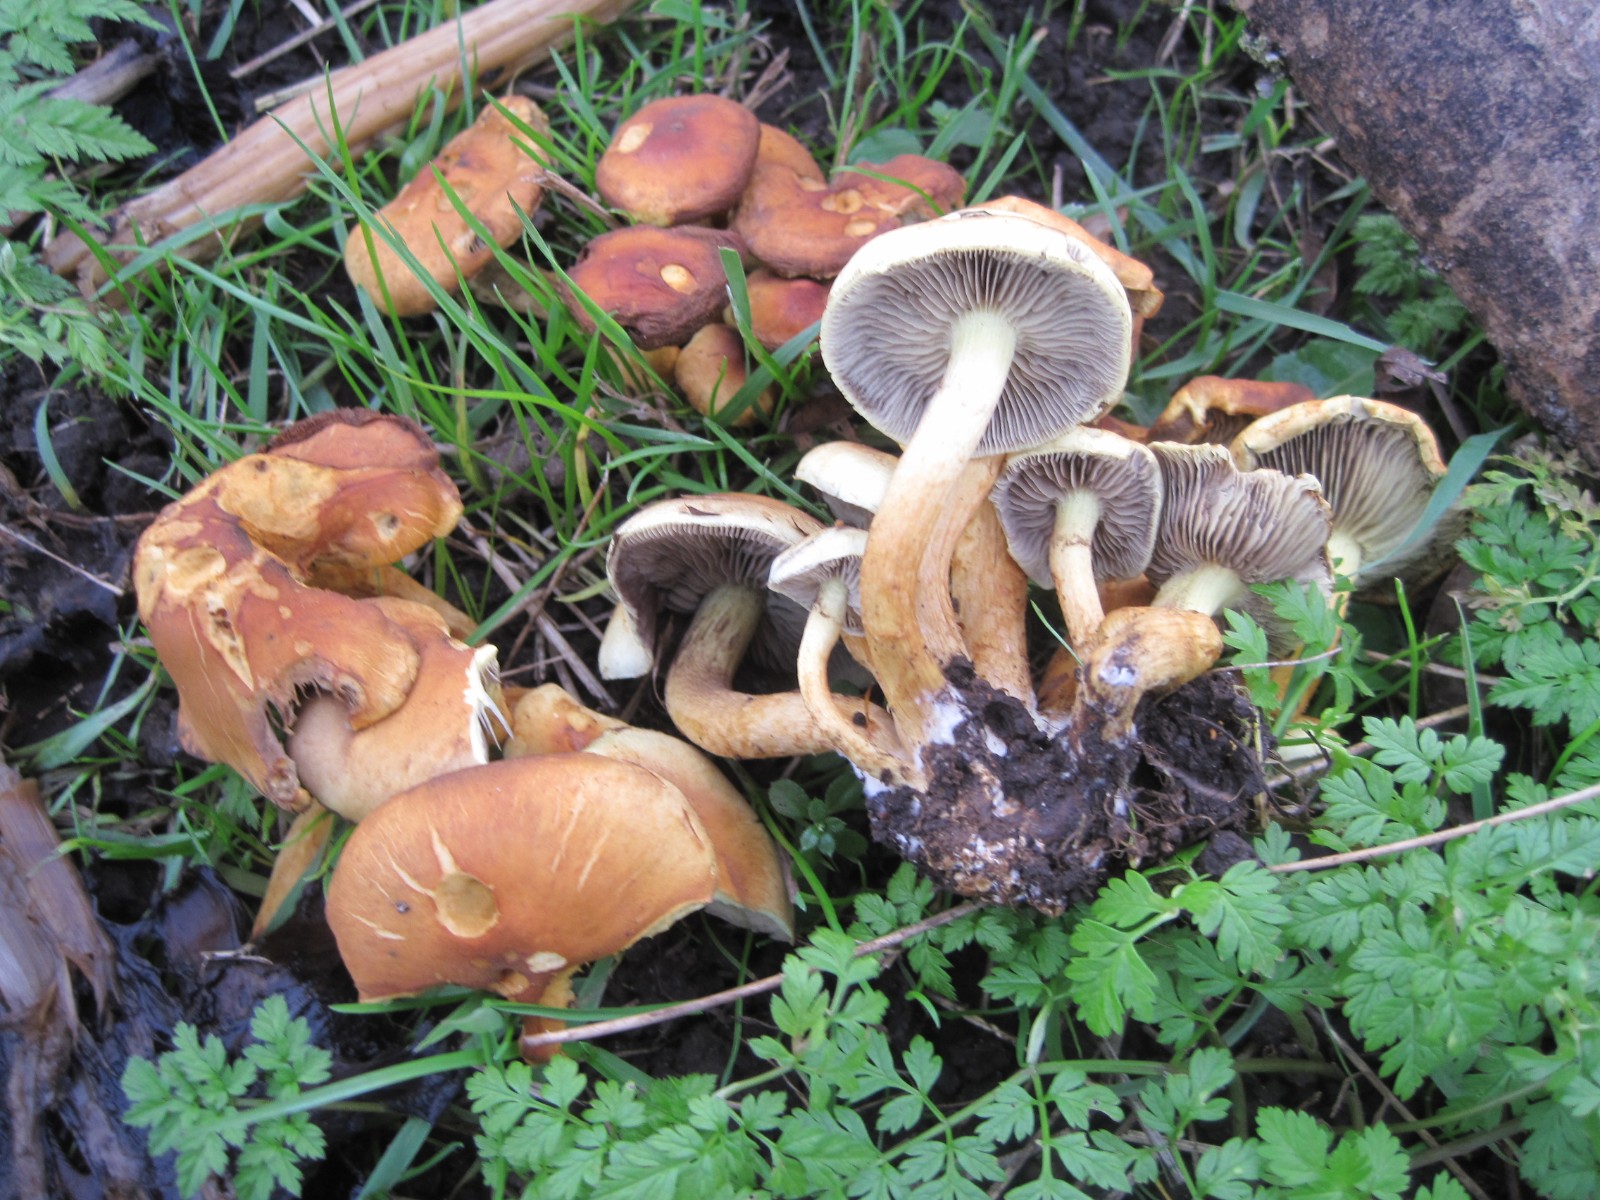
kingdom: Fungi
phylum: Basidiomycota
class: Agaricomycetes
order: Agaricales
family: Strophariaceae
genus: Hypholoma
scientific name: Hypholoma fasciculare
